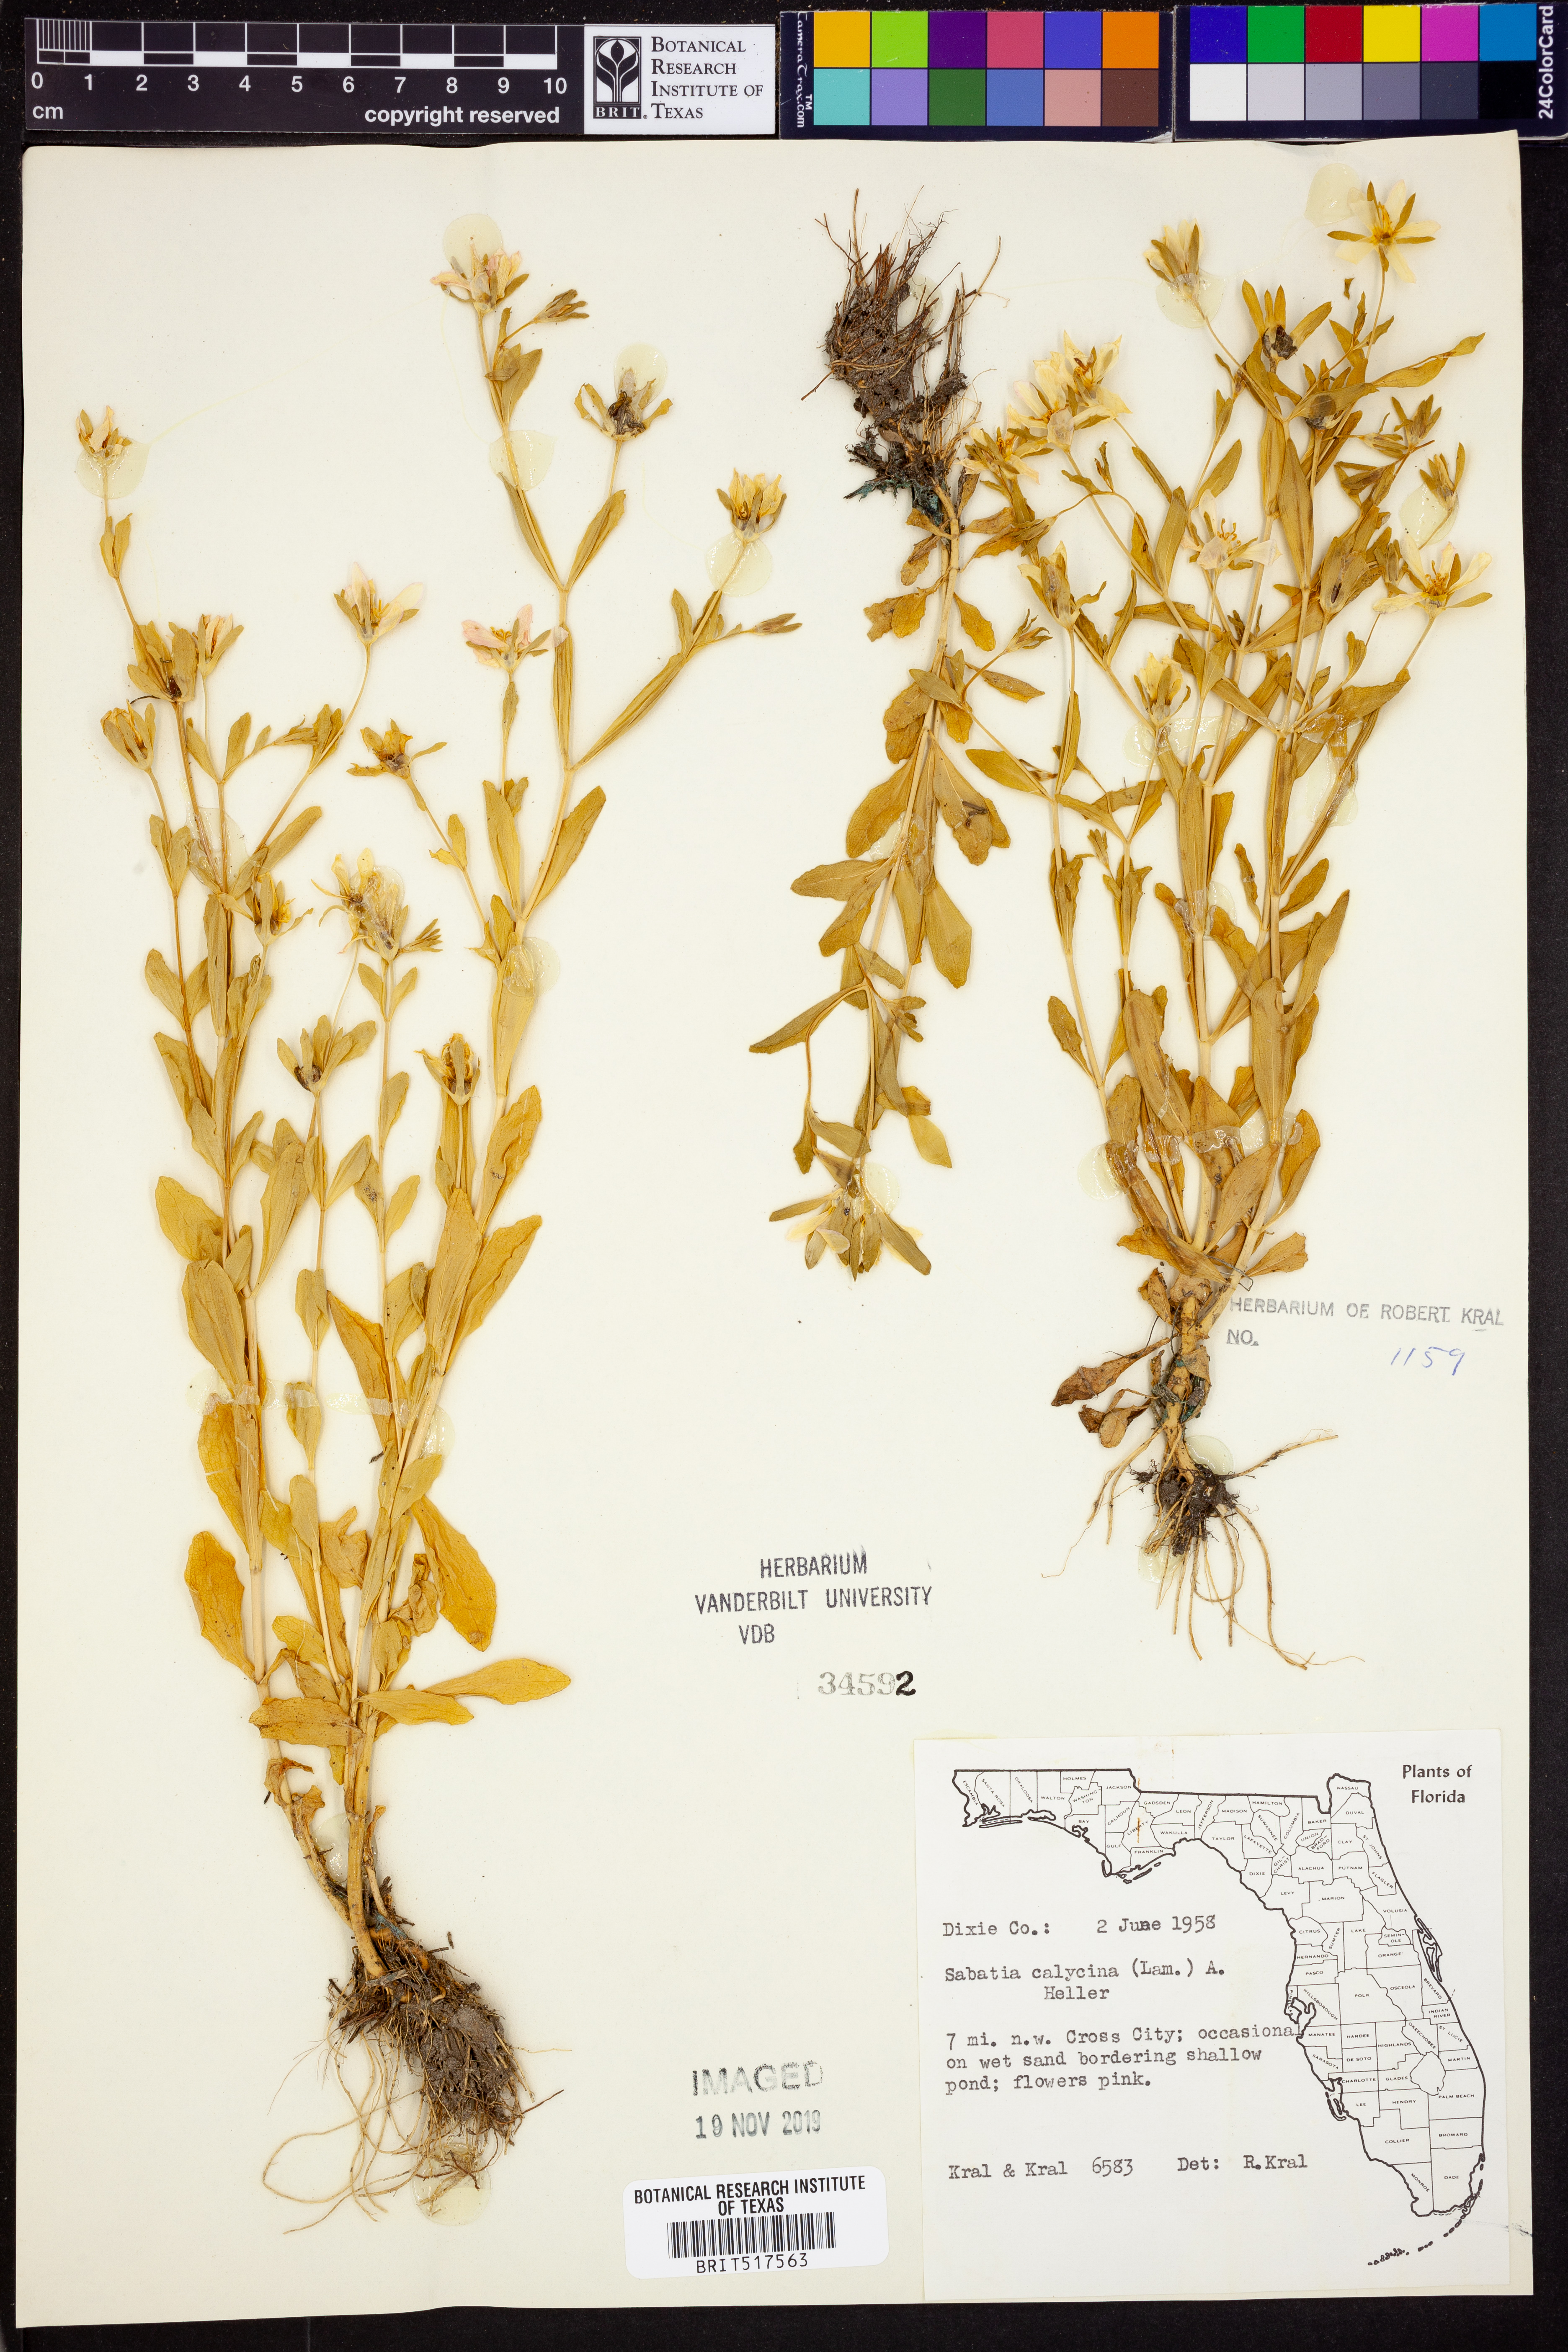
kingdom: Plantae
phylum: Tracheophyta
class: Magnoliopsida
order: Gentianales
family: Gentianaceae
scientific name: Gentianaceae
